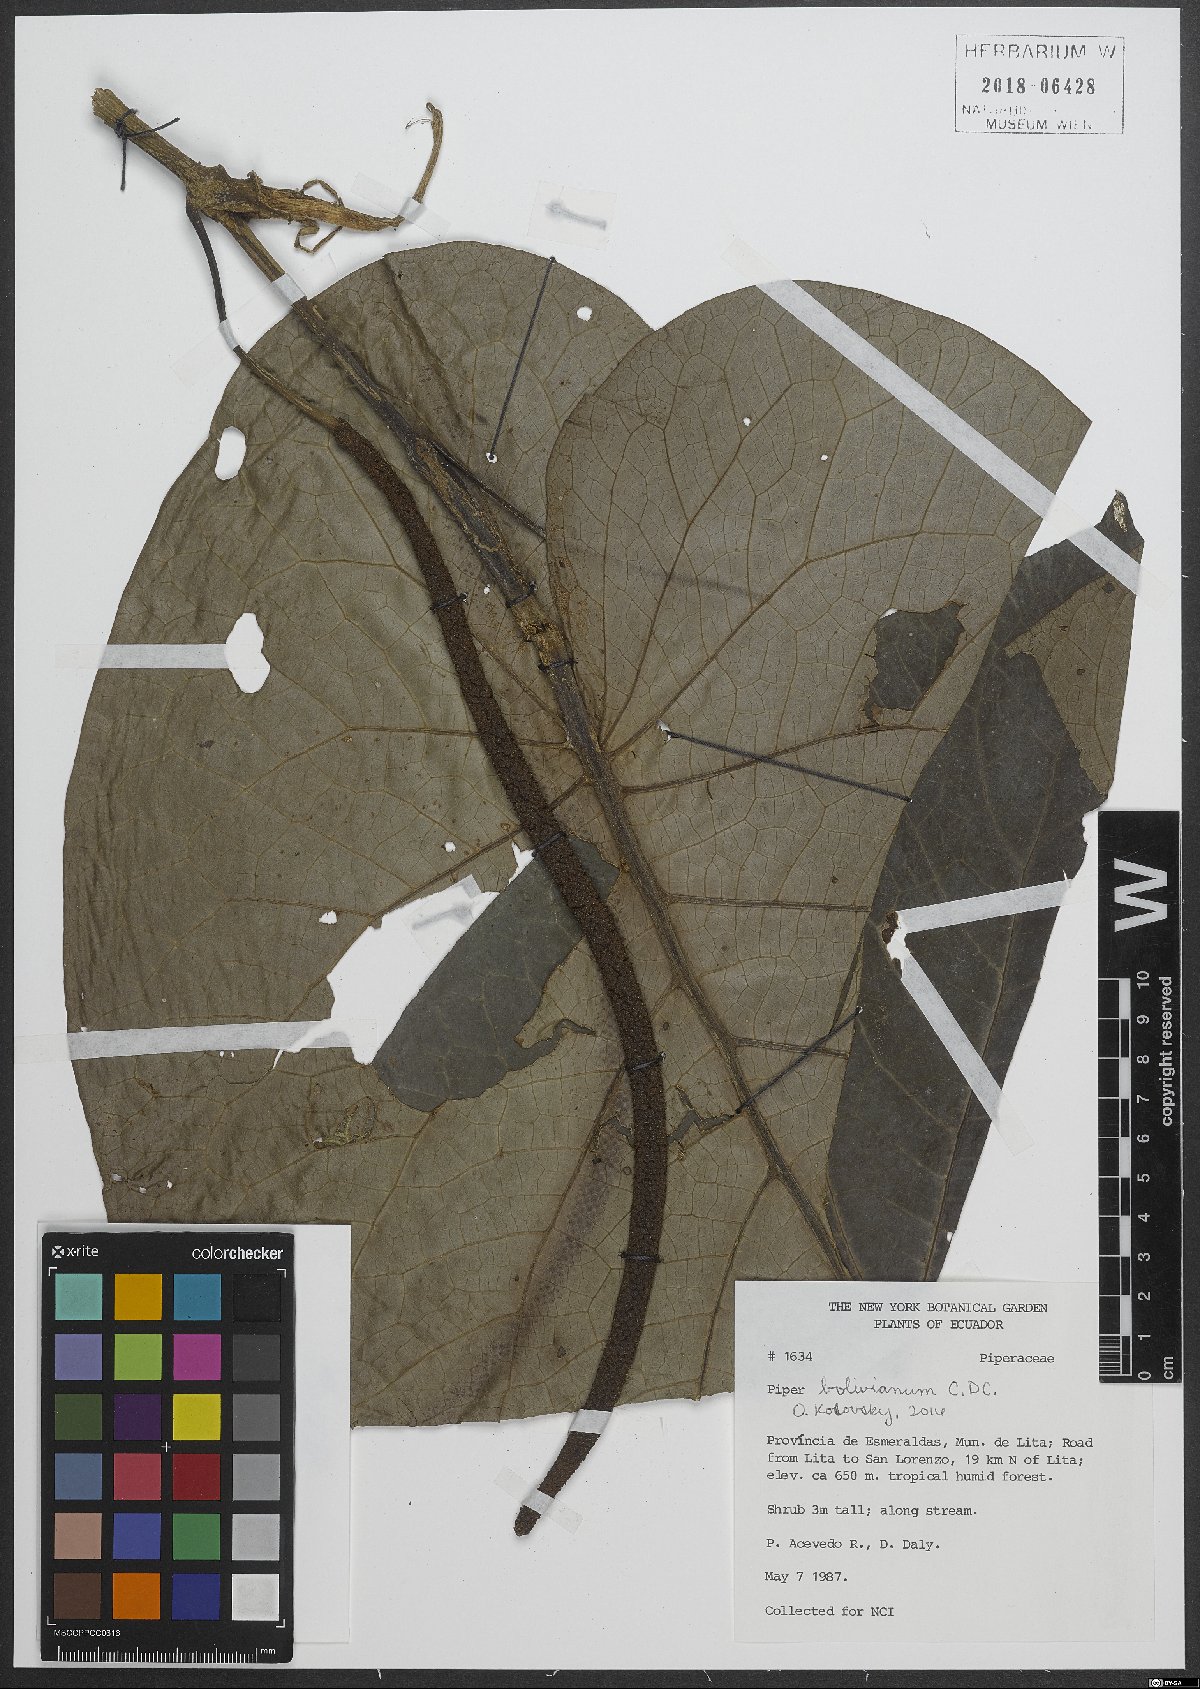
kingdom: Plantae
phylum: Tracheophyta
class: Magnoliopsida
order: Piperales
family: Piperaceae
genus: Piper
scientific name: Piper bolivianum
